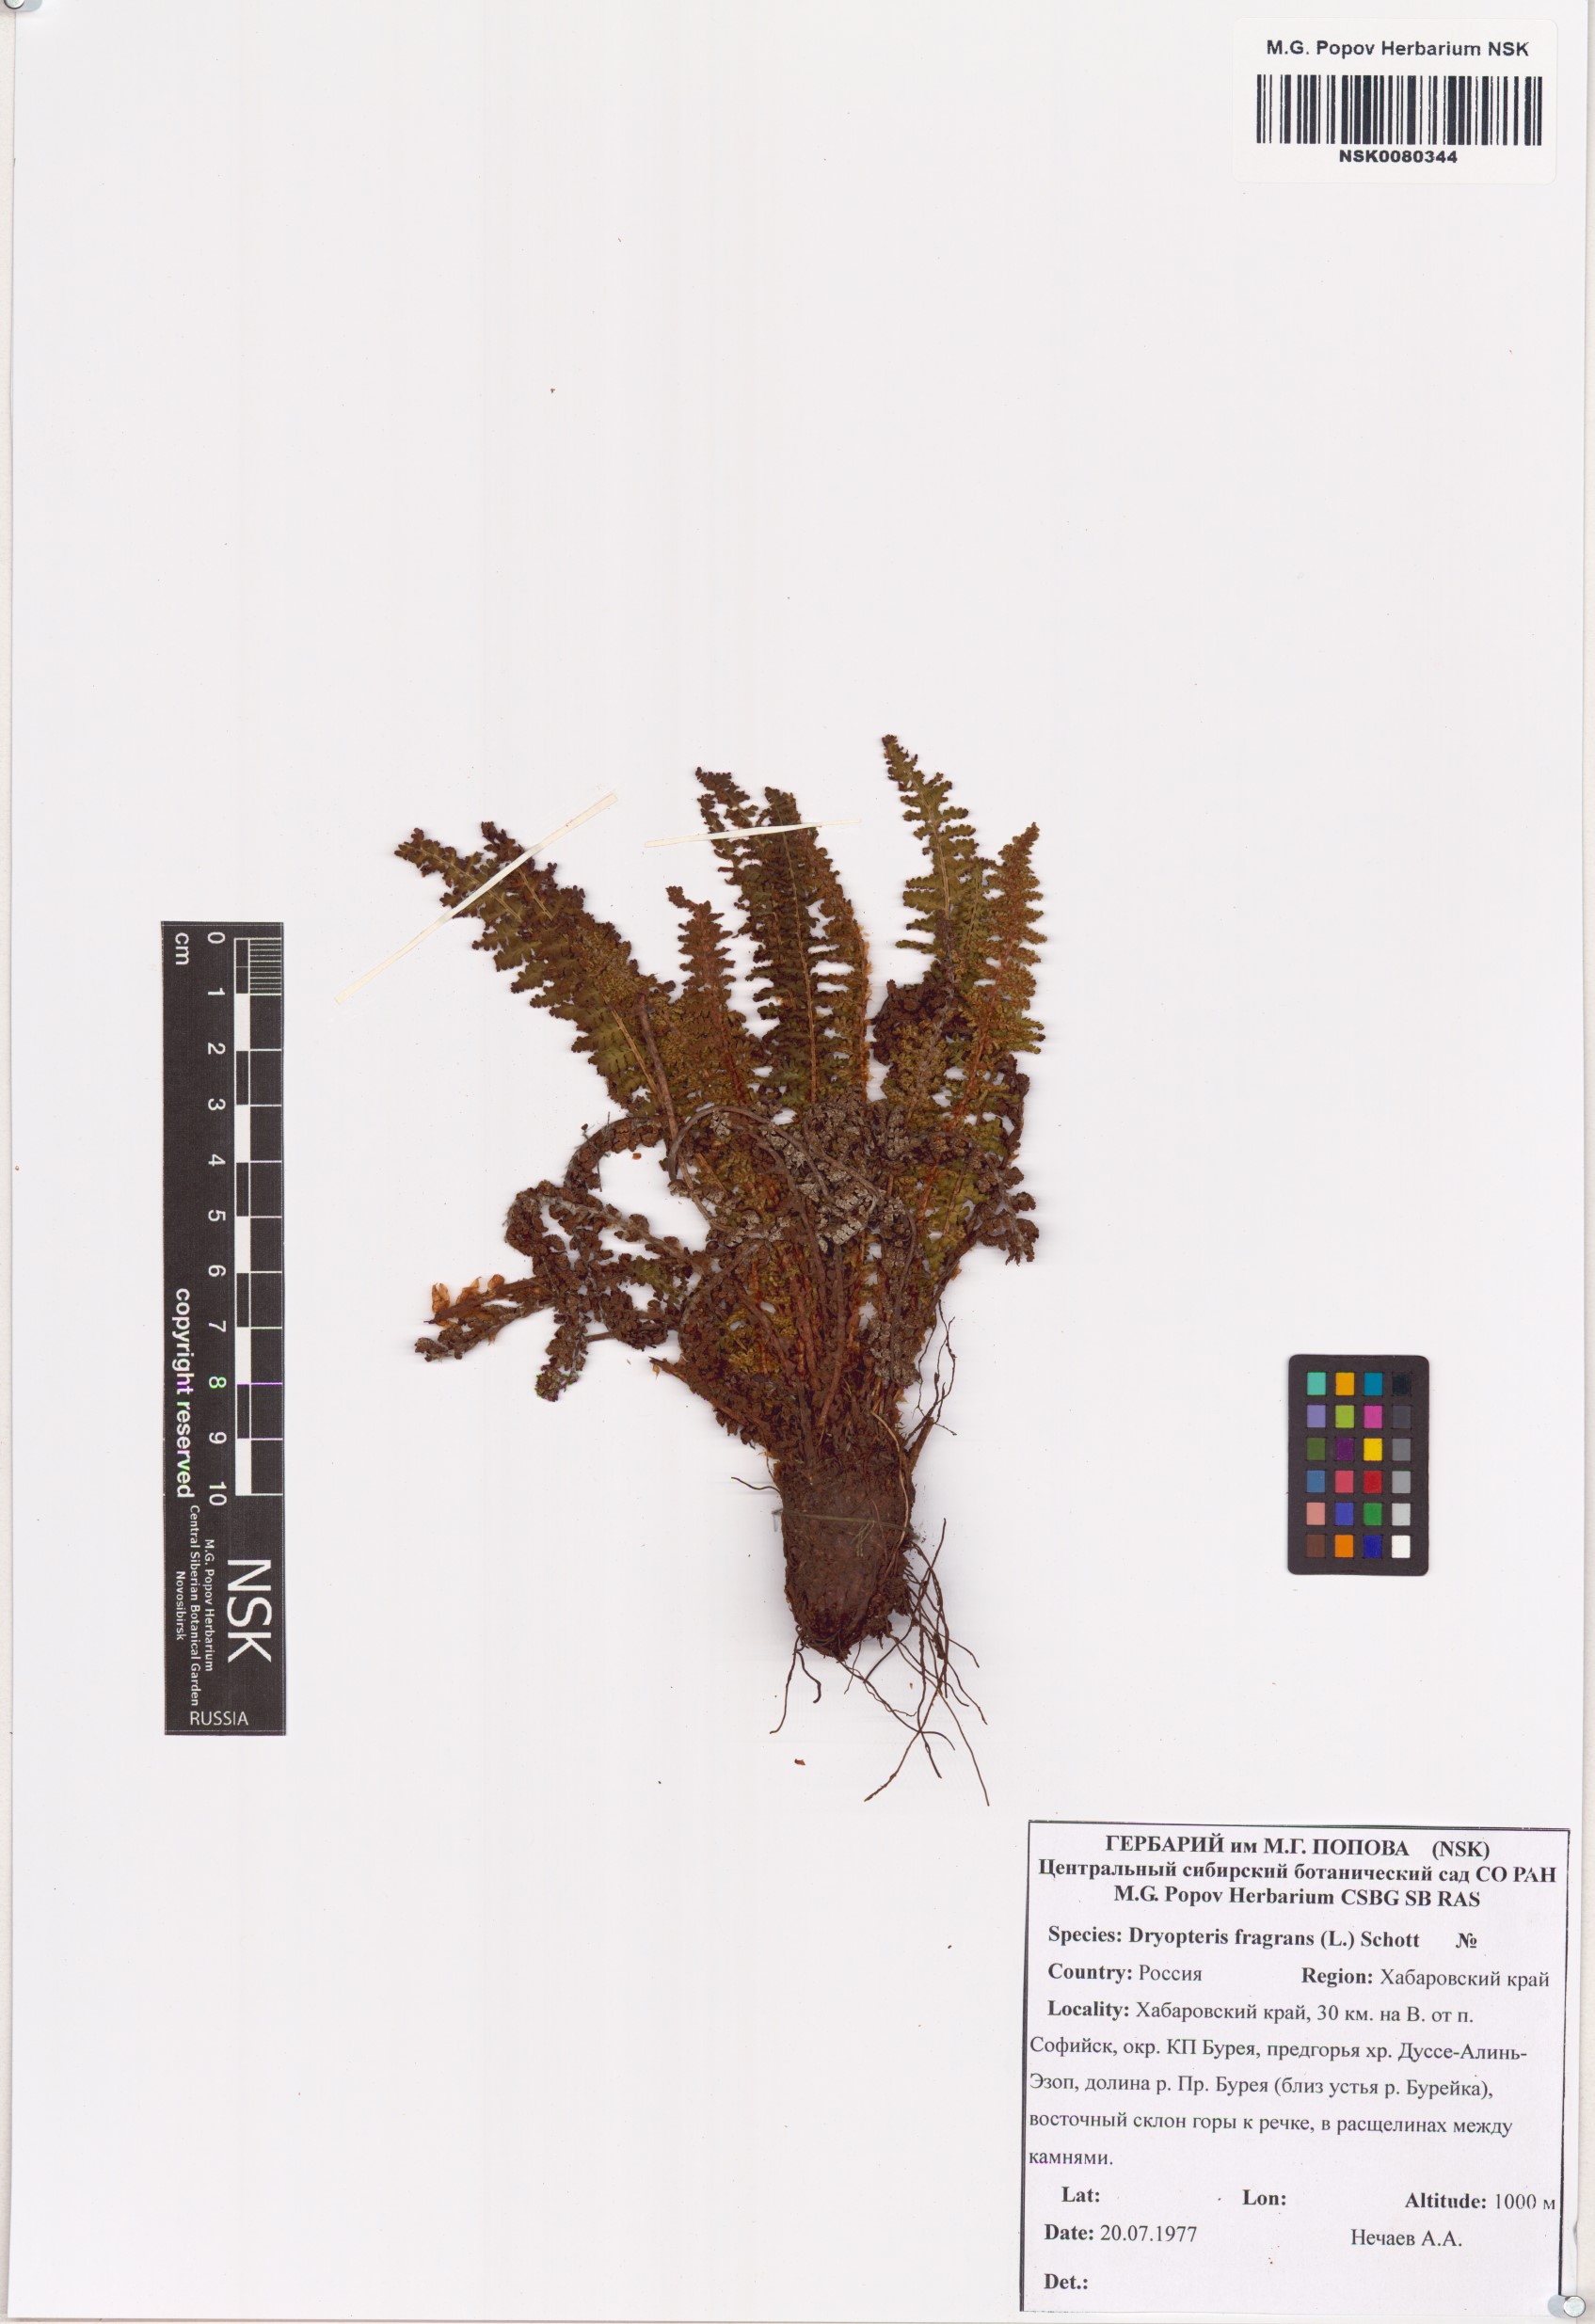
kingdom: Plantae
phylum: Tracheophyta
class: Polypodiopsida
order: Polypodiales
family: Dryopteridaceae
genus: Dryopteris
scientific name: Dryopteris fragrans
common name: Fragrant wood fern
